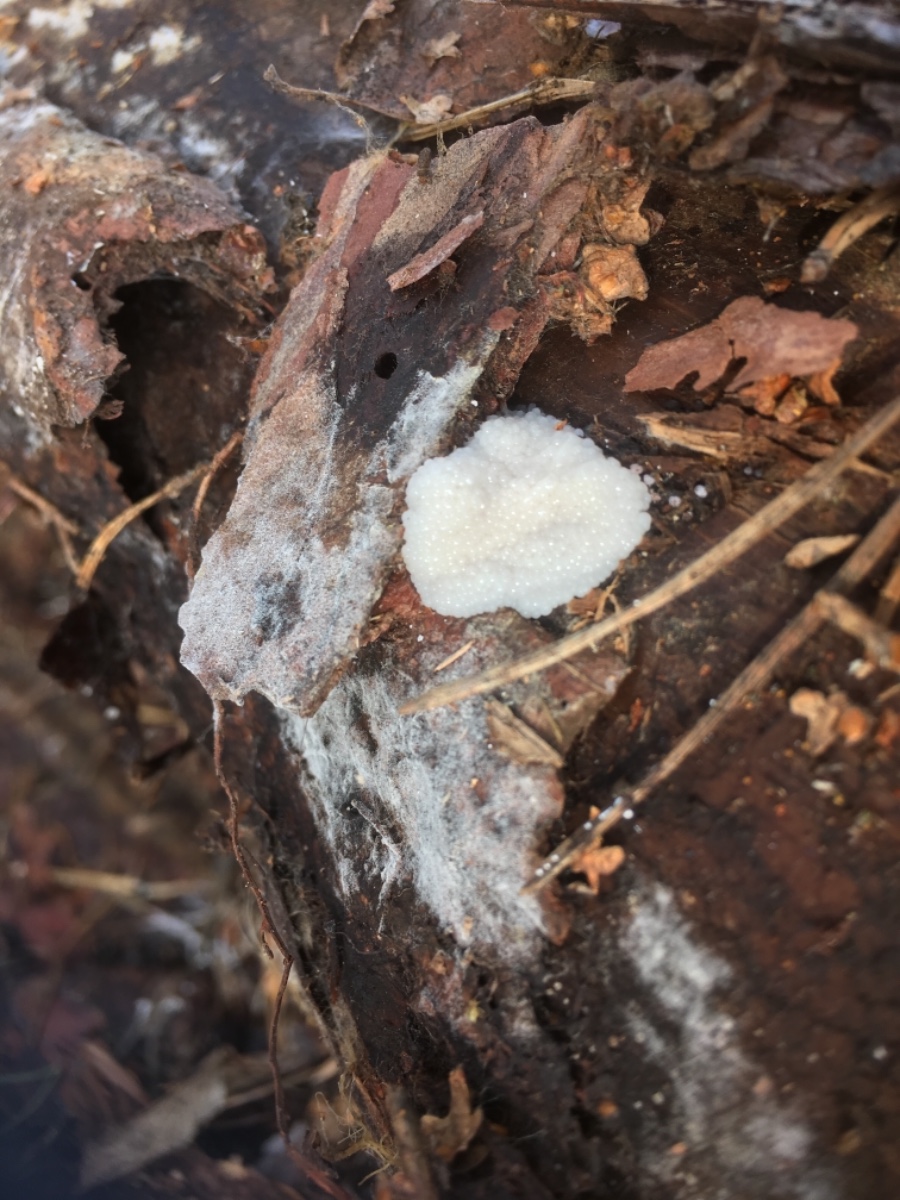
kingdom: Protozoa
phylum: Mycetozoa
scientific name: Mycetozoa
